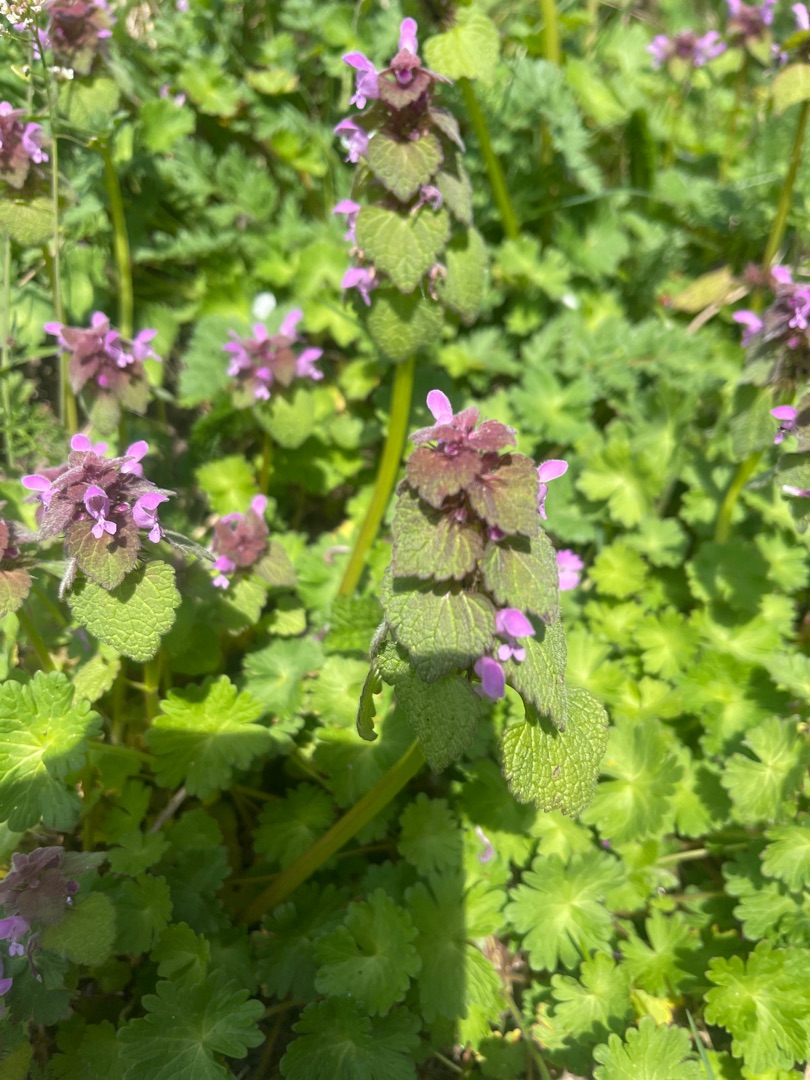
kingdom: Plantae
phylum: Tracheophyta
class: Magnoliopsida
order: Lamiales
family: Lamiaceae
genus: Lamium
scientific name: Lamium purpureum
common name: Rød tvetand
